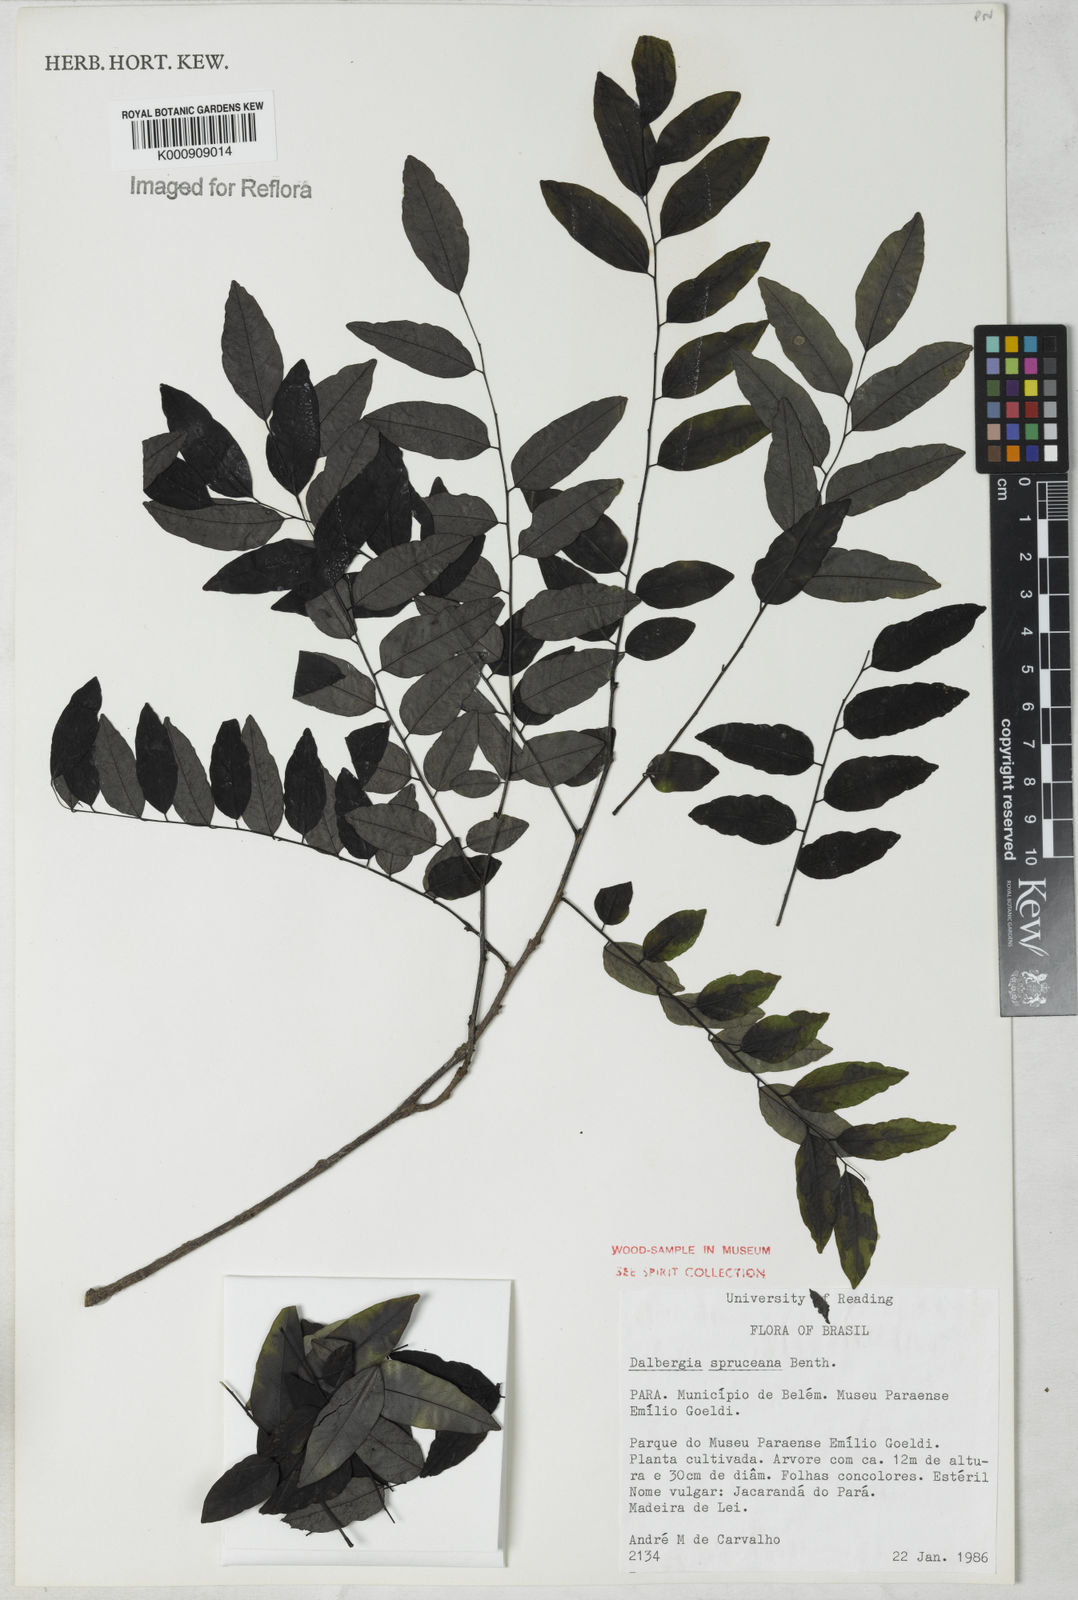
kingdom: Plantae
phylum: Tracheophyta
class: Magnoliopsida
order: Fabales
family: Fabaceae
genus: Dalbergia
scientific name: Dalbergia spruceana
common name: Amazon rosewood
